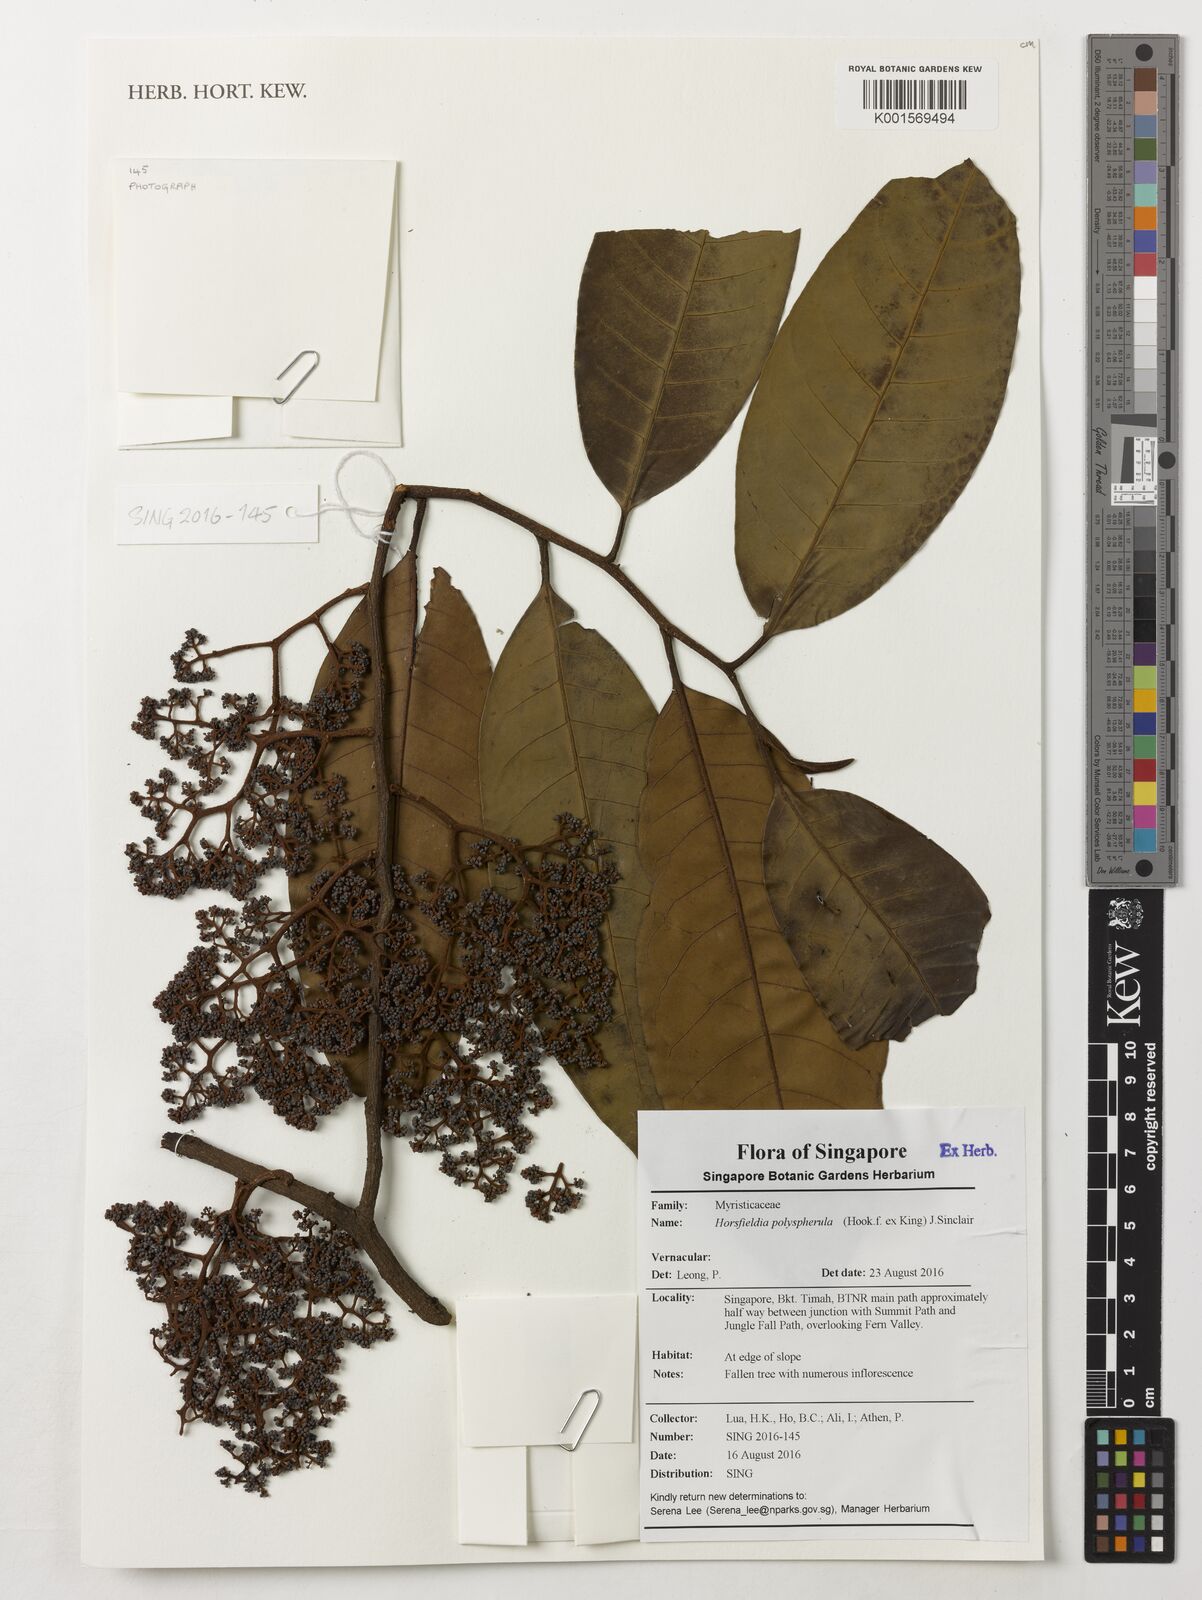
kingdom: Plantae
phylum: Tracheophyta
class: Magnoliopsida
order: Magnoliales
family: Myristicaceae
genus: Horsfieldia
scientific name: Horsfieldia polyspherula
